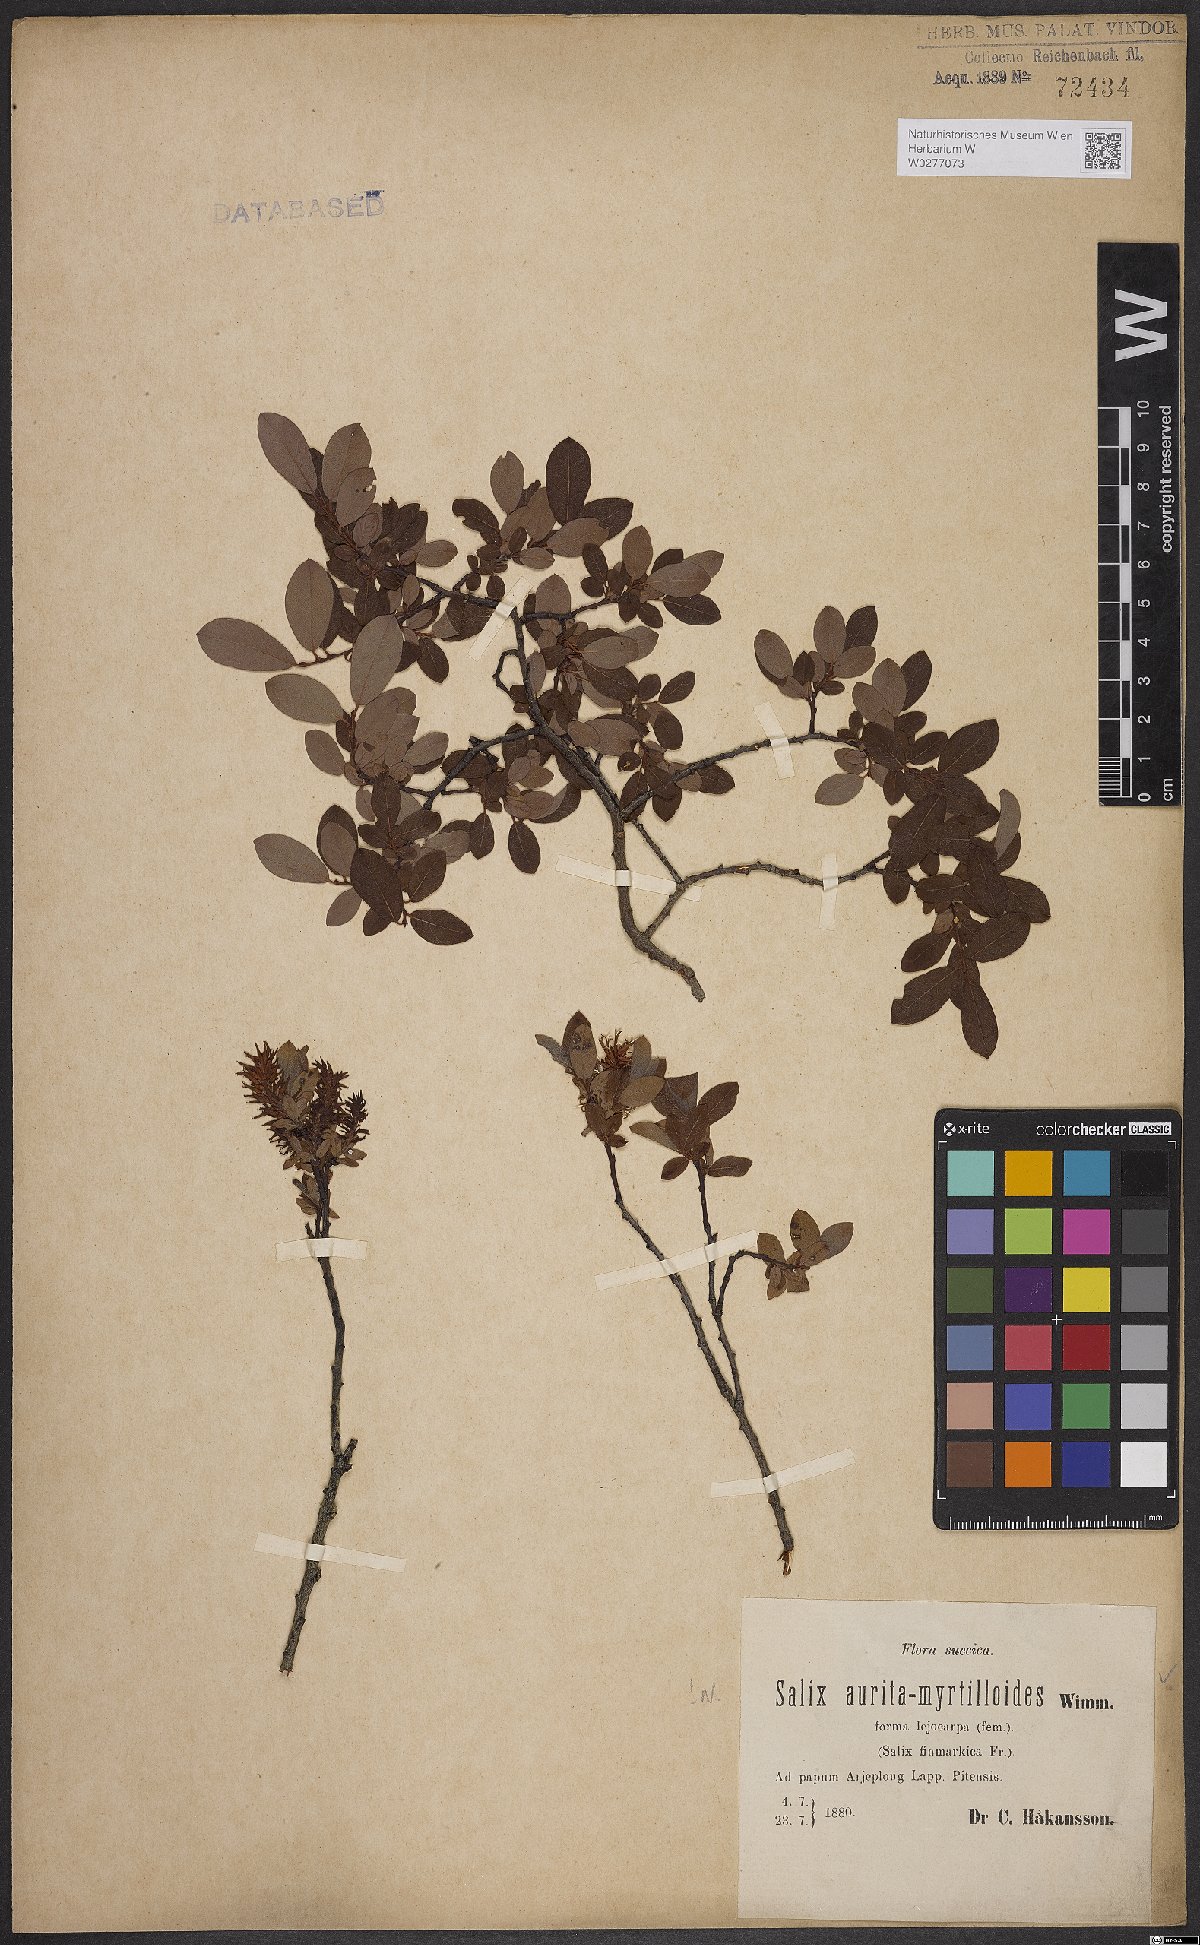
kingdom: Plantae
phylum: Tracheophyta
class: Magnoliopsida
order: Malpighiales
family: Salicaceae
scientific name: Salicaceae
